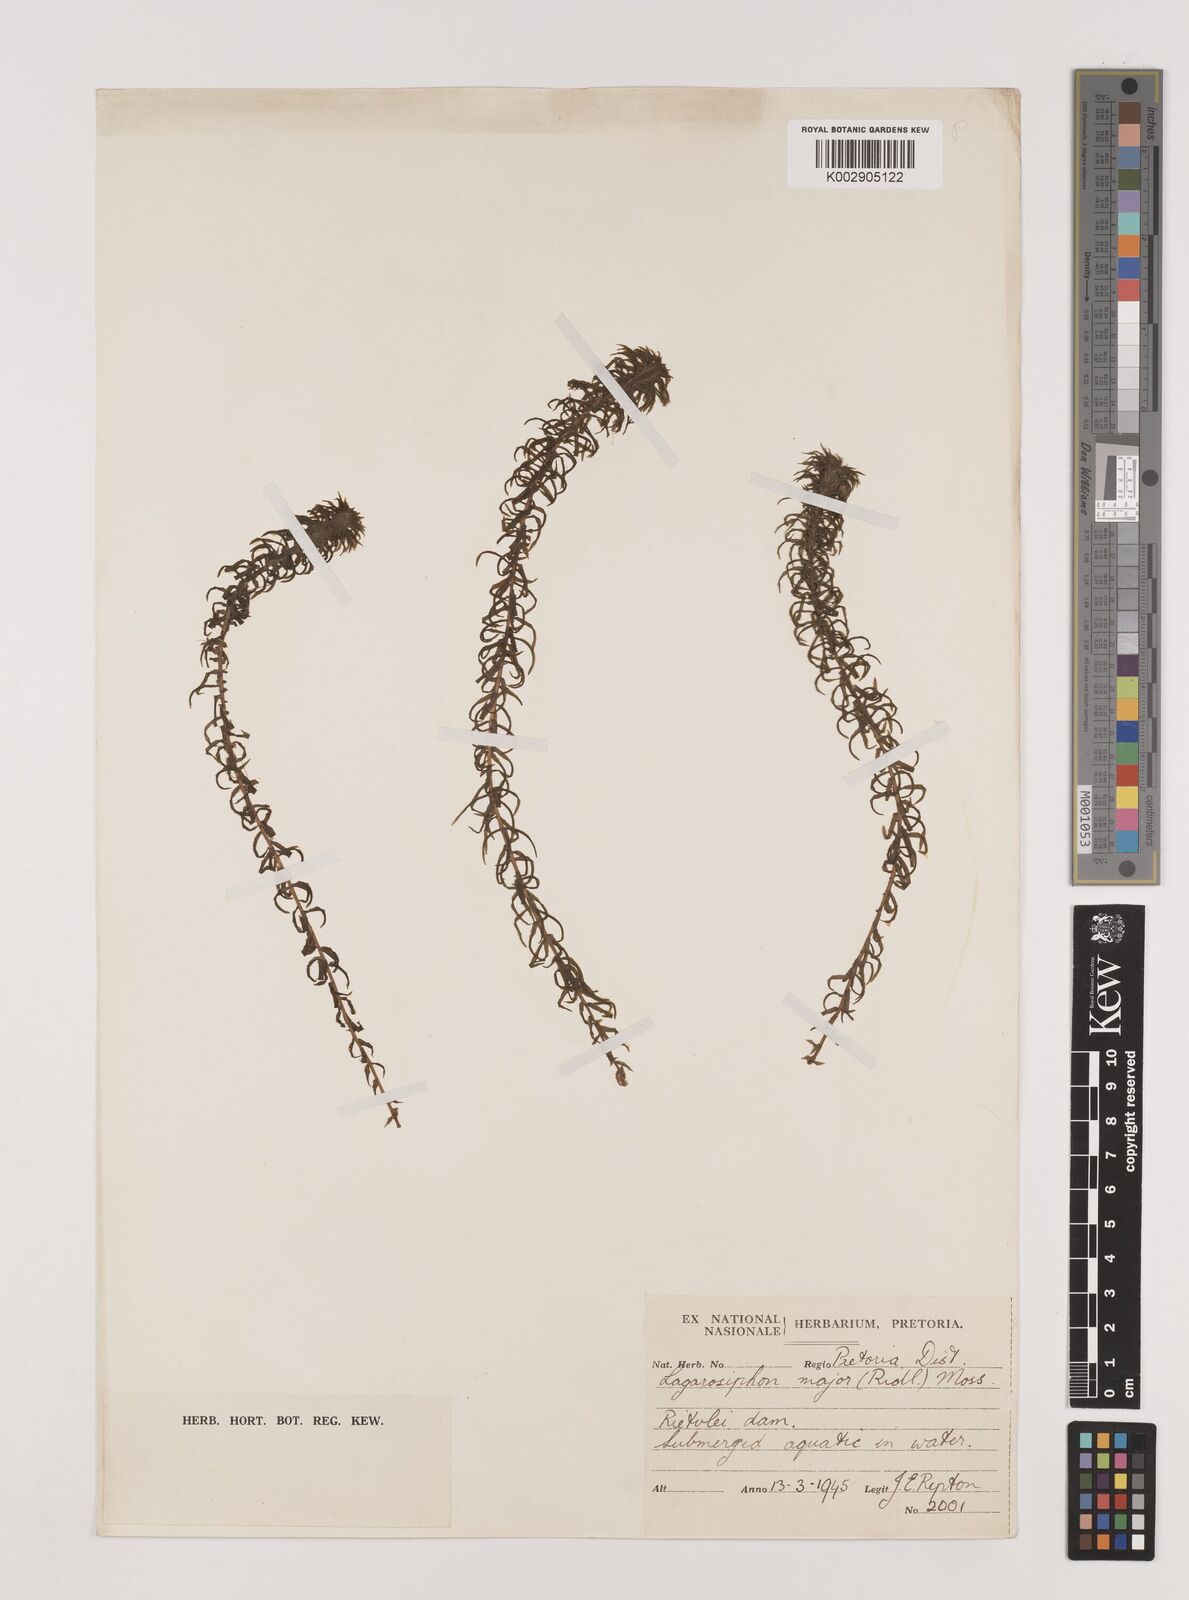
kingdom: Plantae
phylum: Tracheophyta
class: Liliopsida
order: Alismatales
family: Hydrocharitaceae
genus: Lagarosiphon
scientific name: Lagarosiphon major
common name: Curly waterweed
